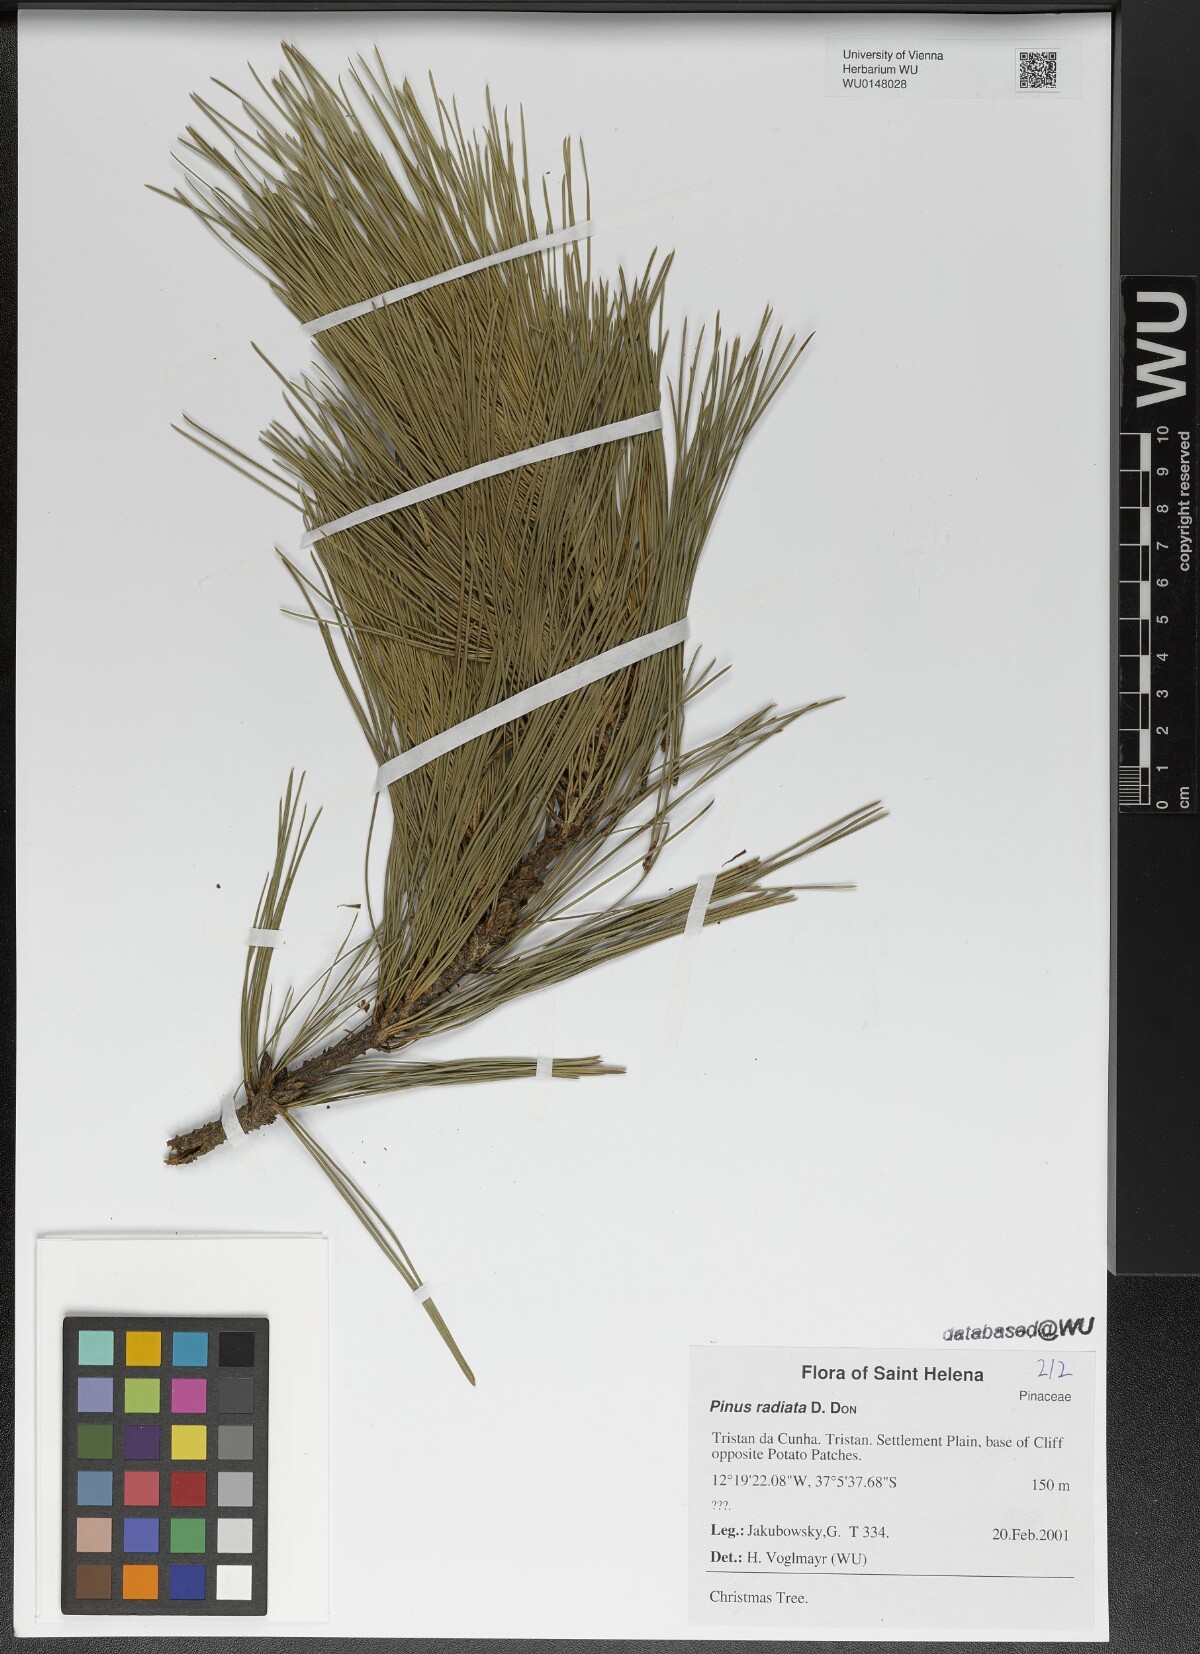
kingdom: Plantae
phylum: Tracheophyta
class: Pinopsida
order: Pinales
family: Pinaceae
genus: Pinus
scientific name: Pinus radiata
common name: Monterey pine
